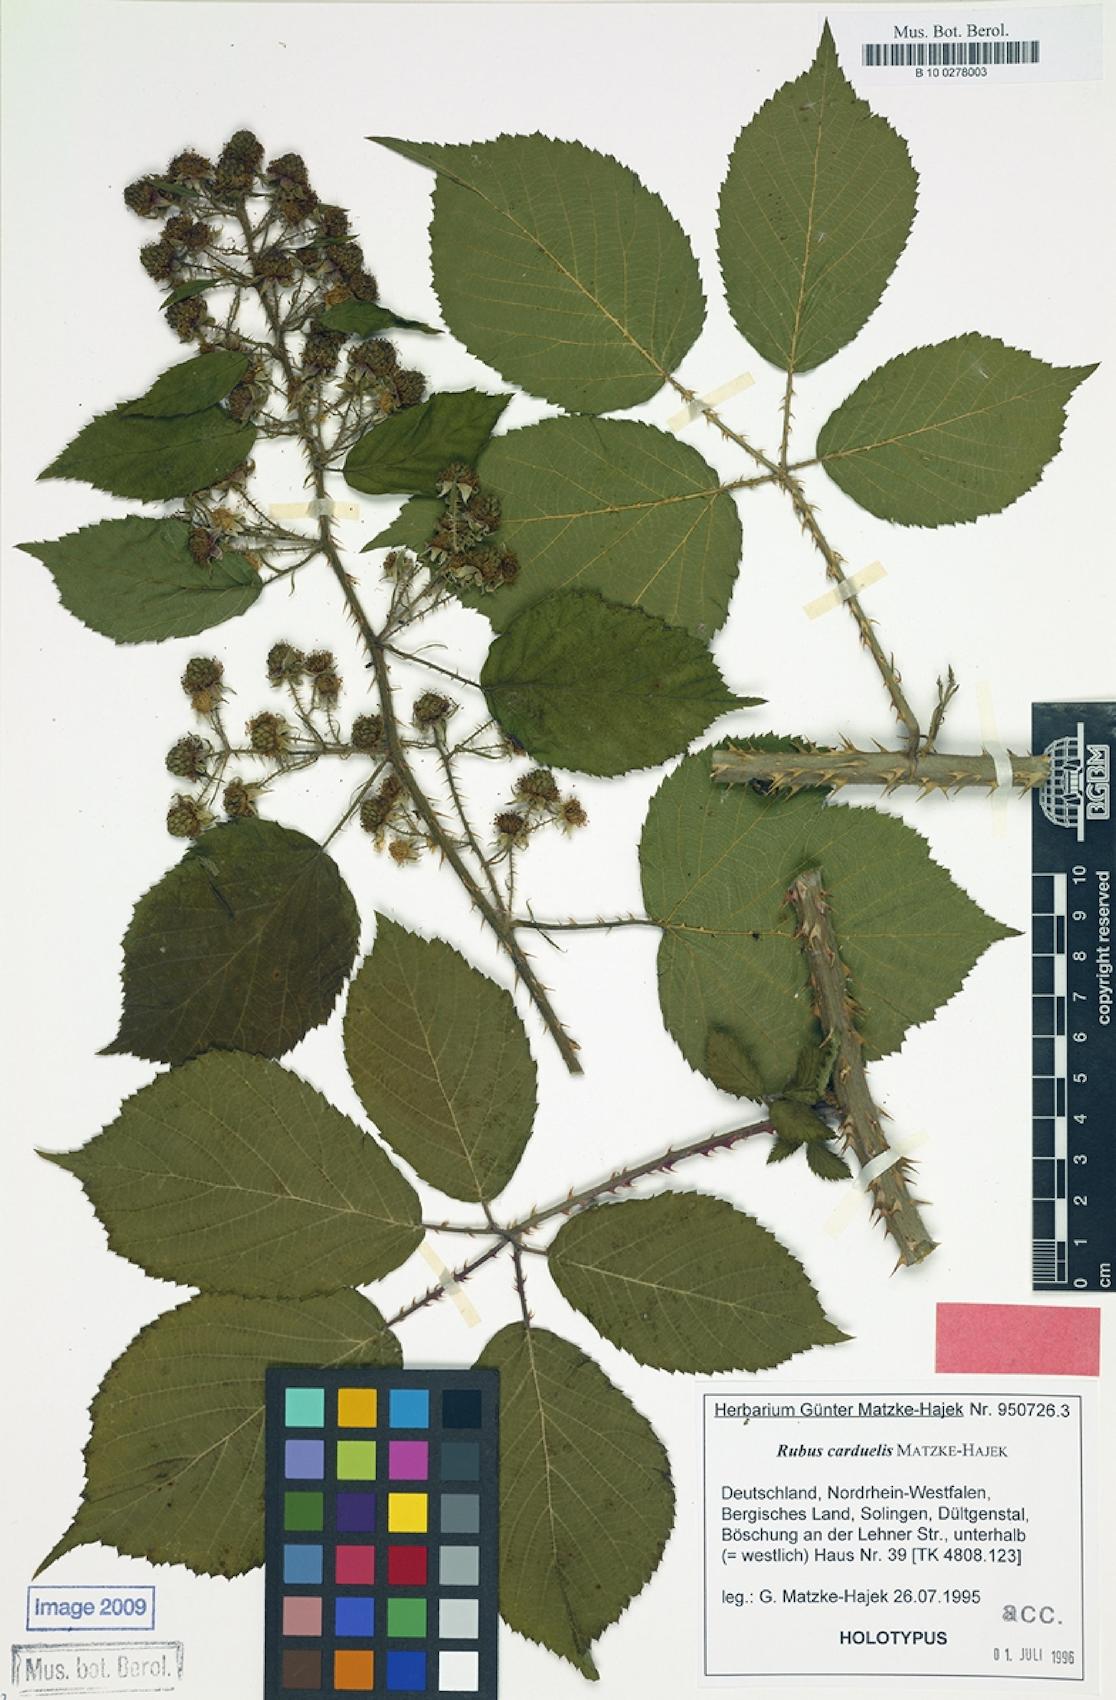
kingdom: Plantae
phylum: Tracheophyta
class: Magnoliopsida
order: Rosales
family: Rosaceae
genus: Rubus
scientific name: Rubus carduelis
